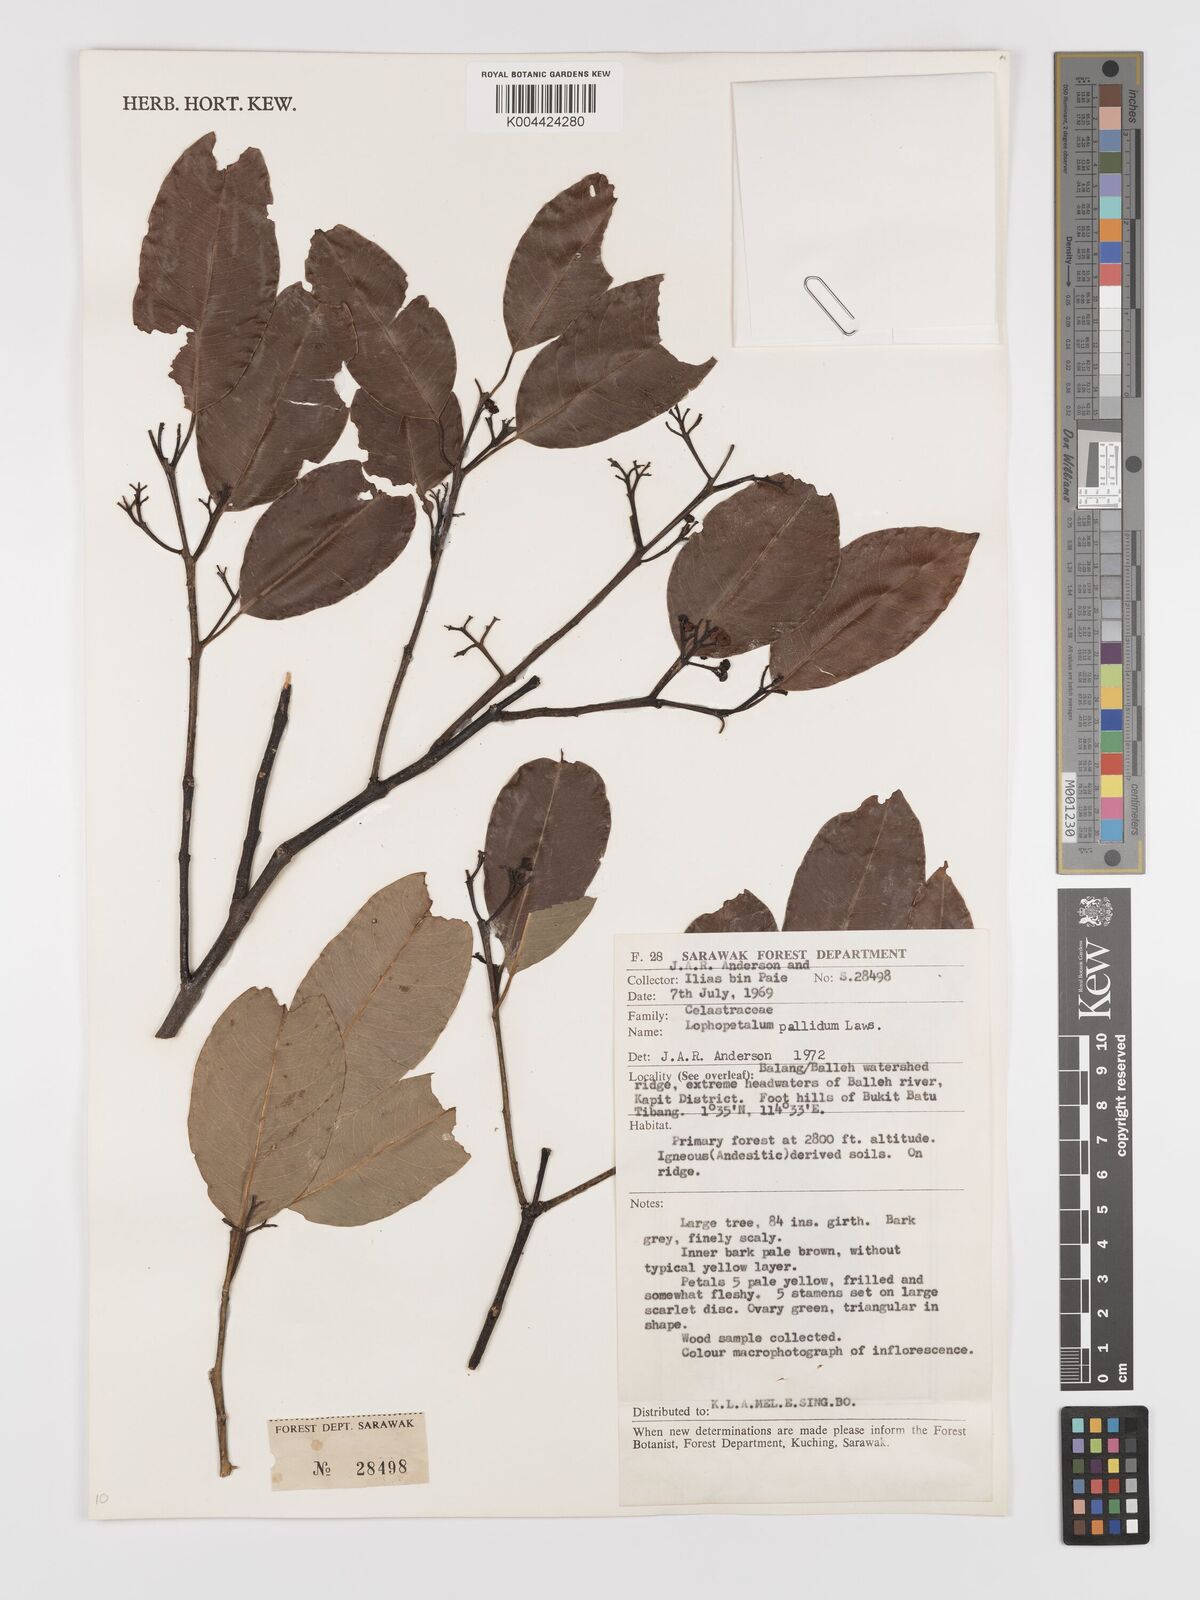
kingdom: Plantae
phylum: Tracheophyta
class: Magnoliopsida
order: Celastrales
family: Celastraceae
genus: Lophopetalum
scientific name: Lophopetalum pallidum
